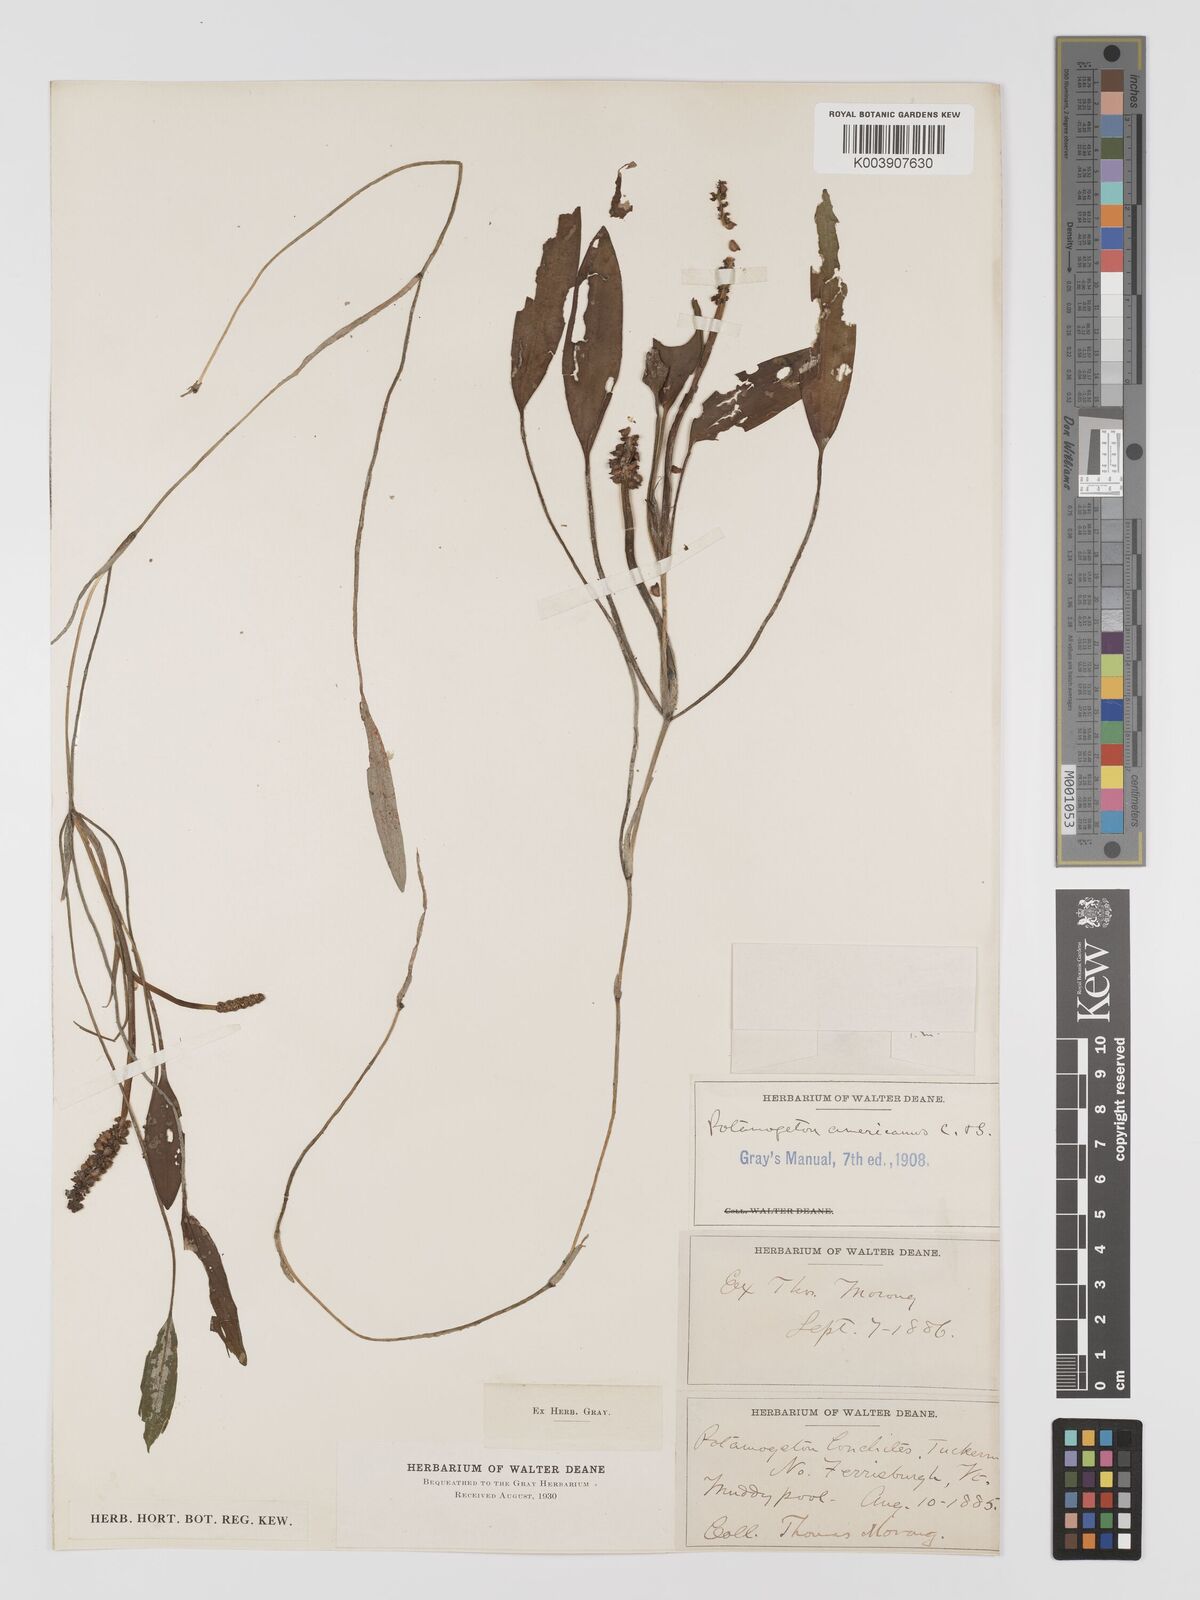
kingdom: Plantae
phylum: Tracheophyta
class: Liliopsida
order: Alismatales
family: Potamogetonaceae
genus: Potamogeton
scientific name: Potamogeton nodosus
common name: Loddon pondweed
